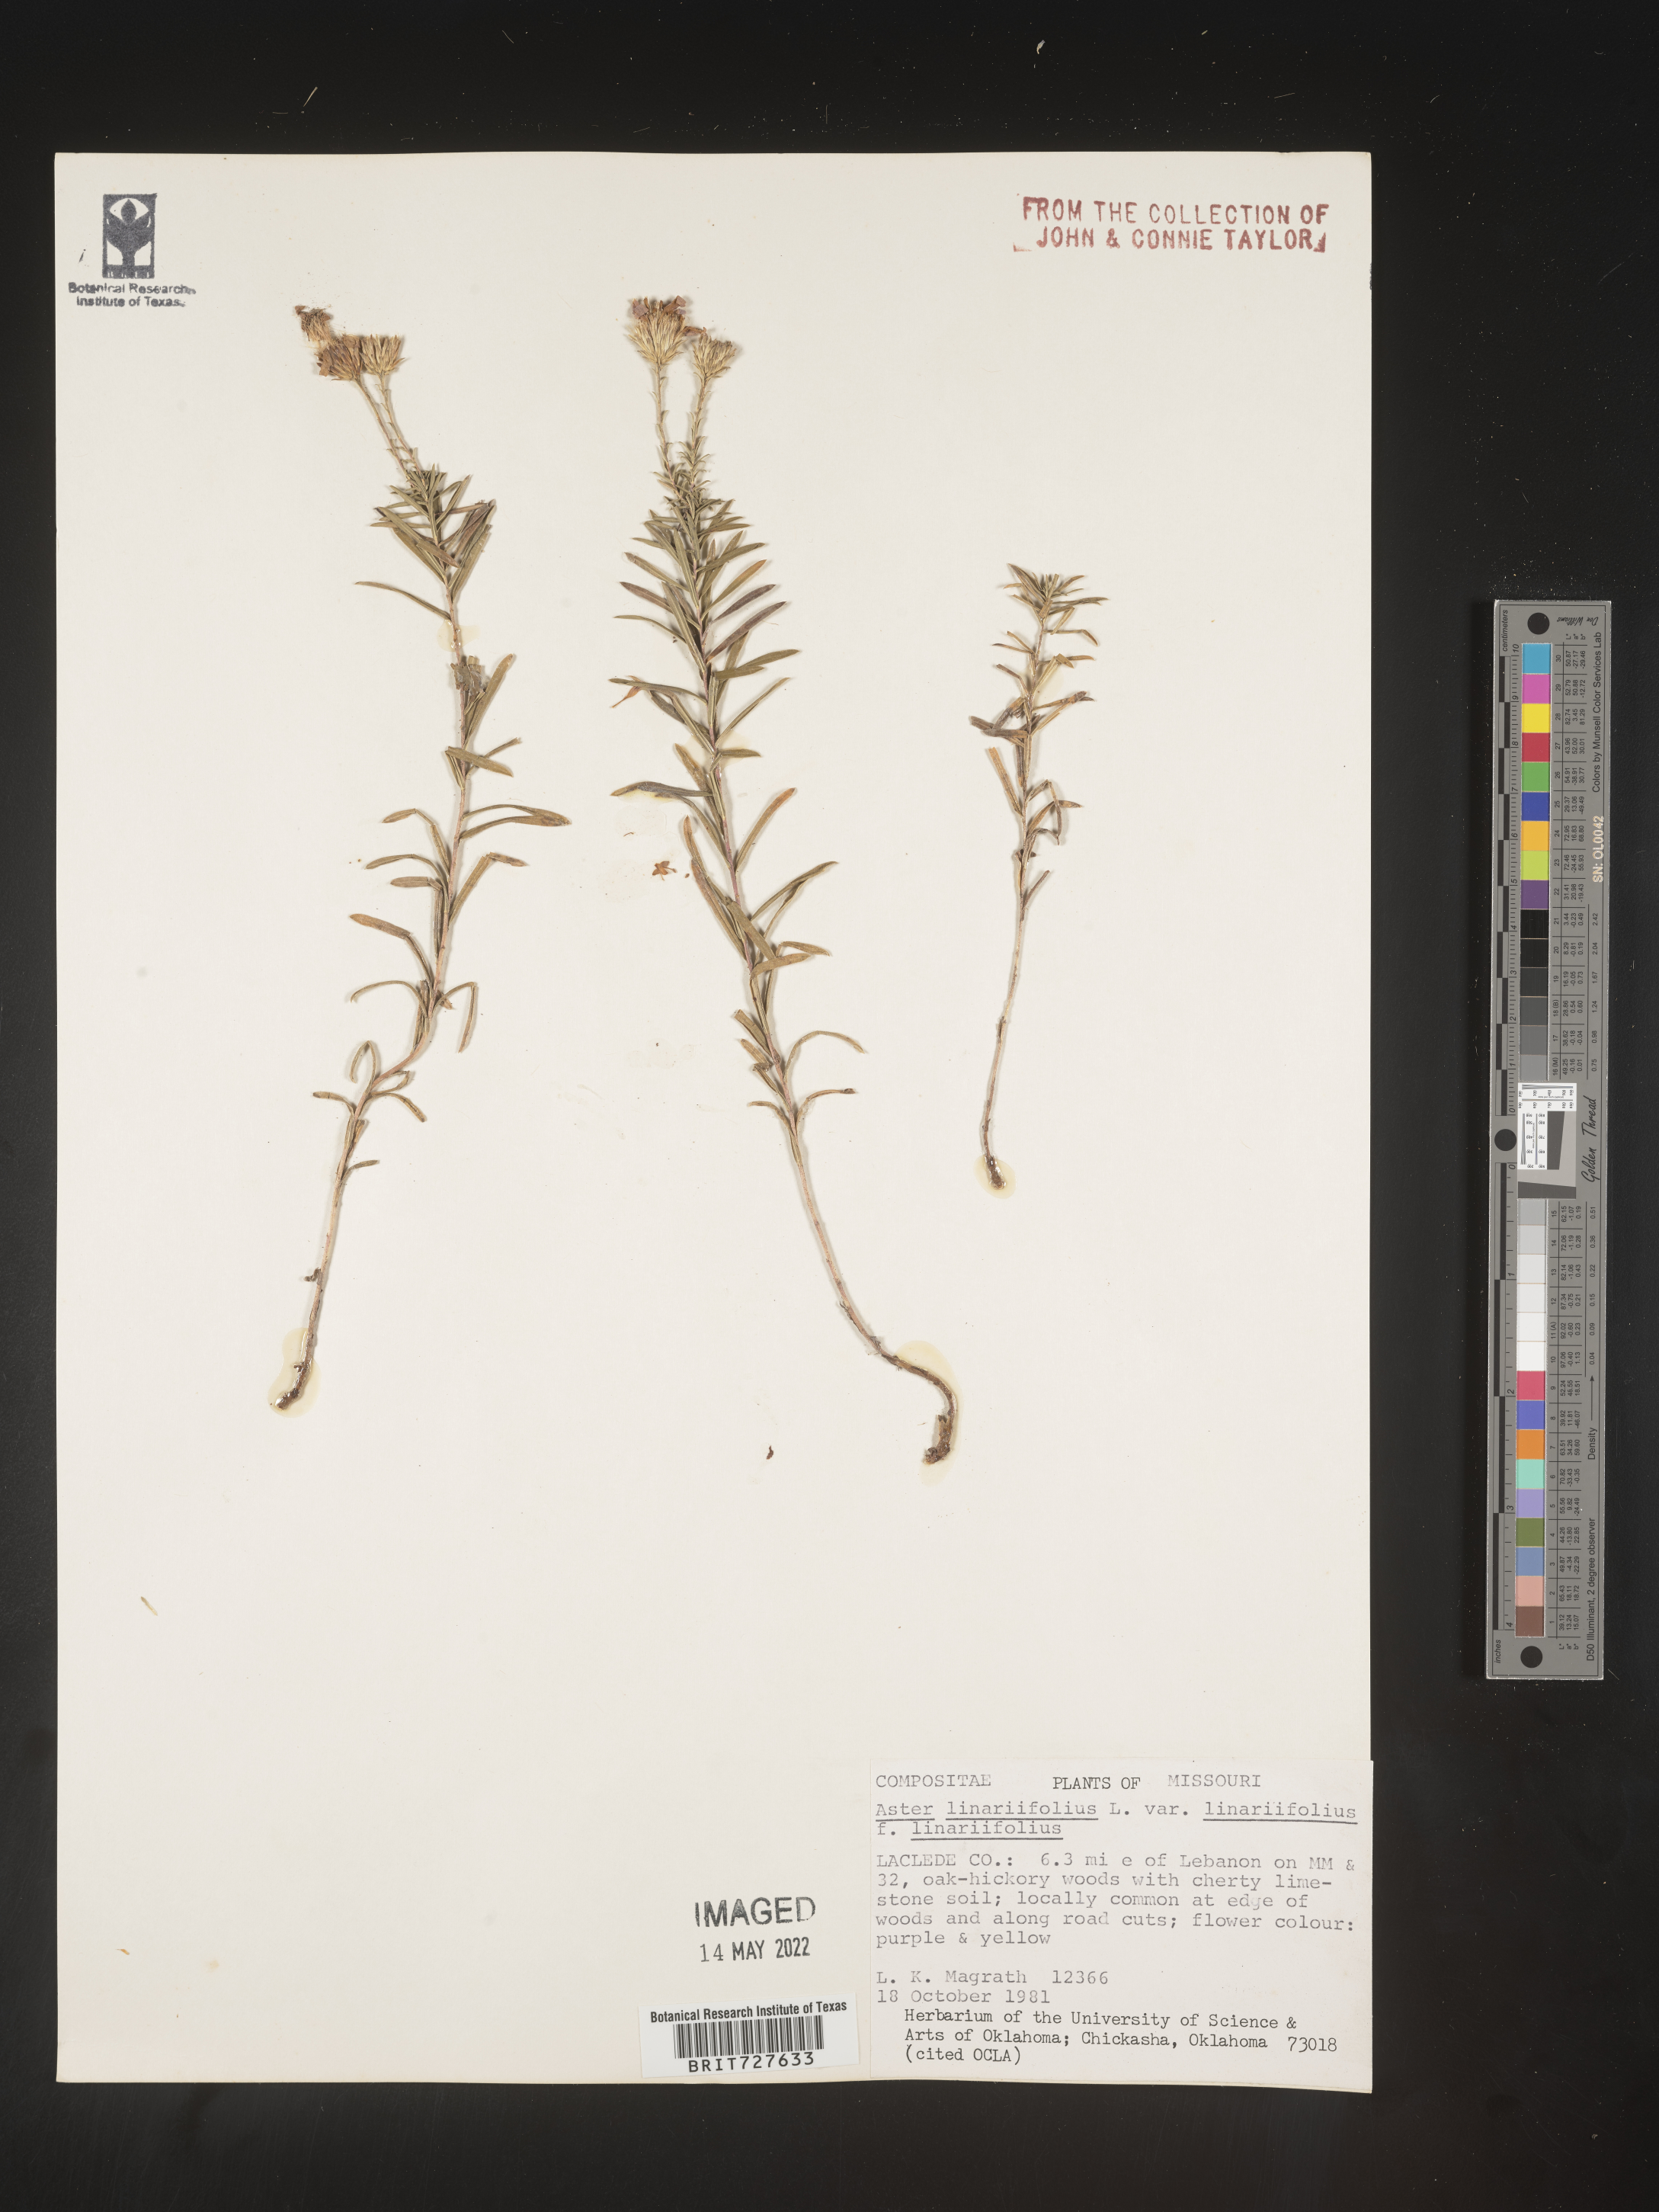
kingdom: Plantae
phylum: Tracheophyta
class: Magnoliopsida
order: Asterales
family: Asteraceae
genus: Ionactis
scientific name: Ionactis linariifolia
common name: Flax-leaf aster
